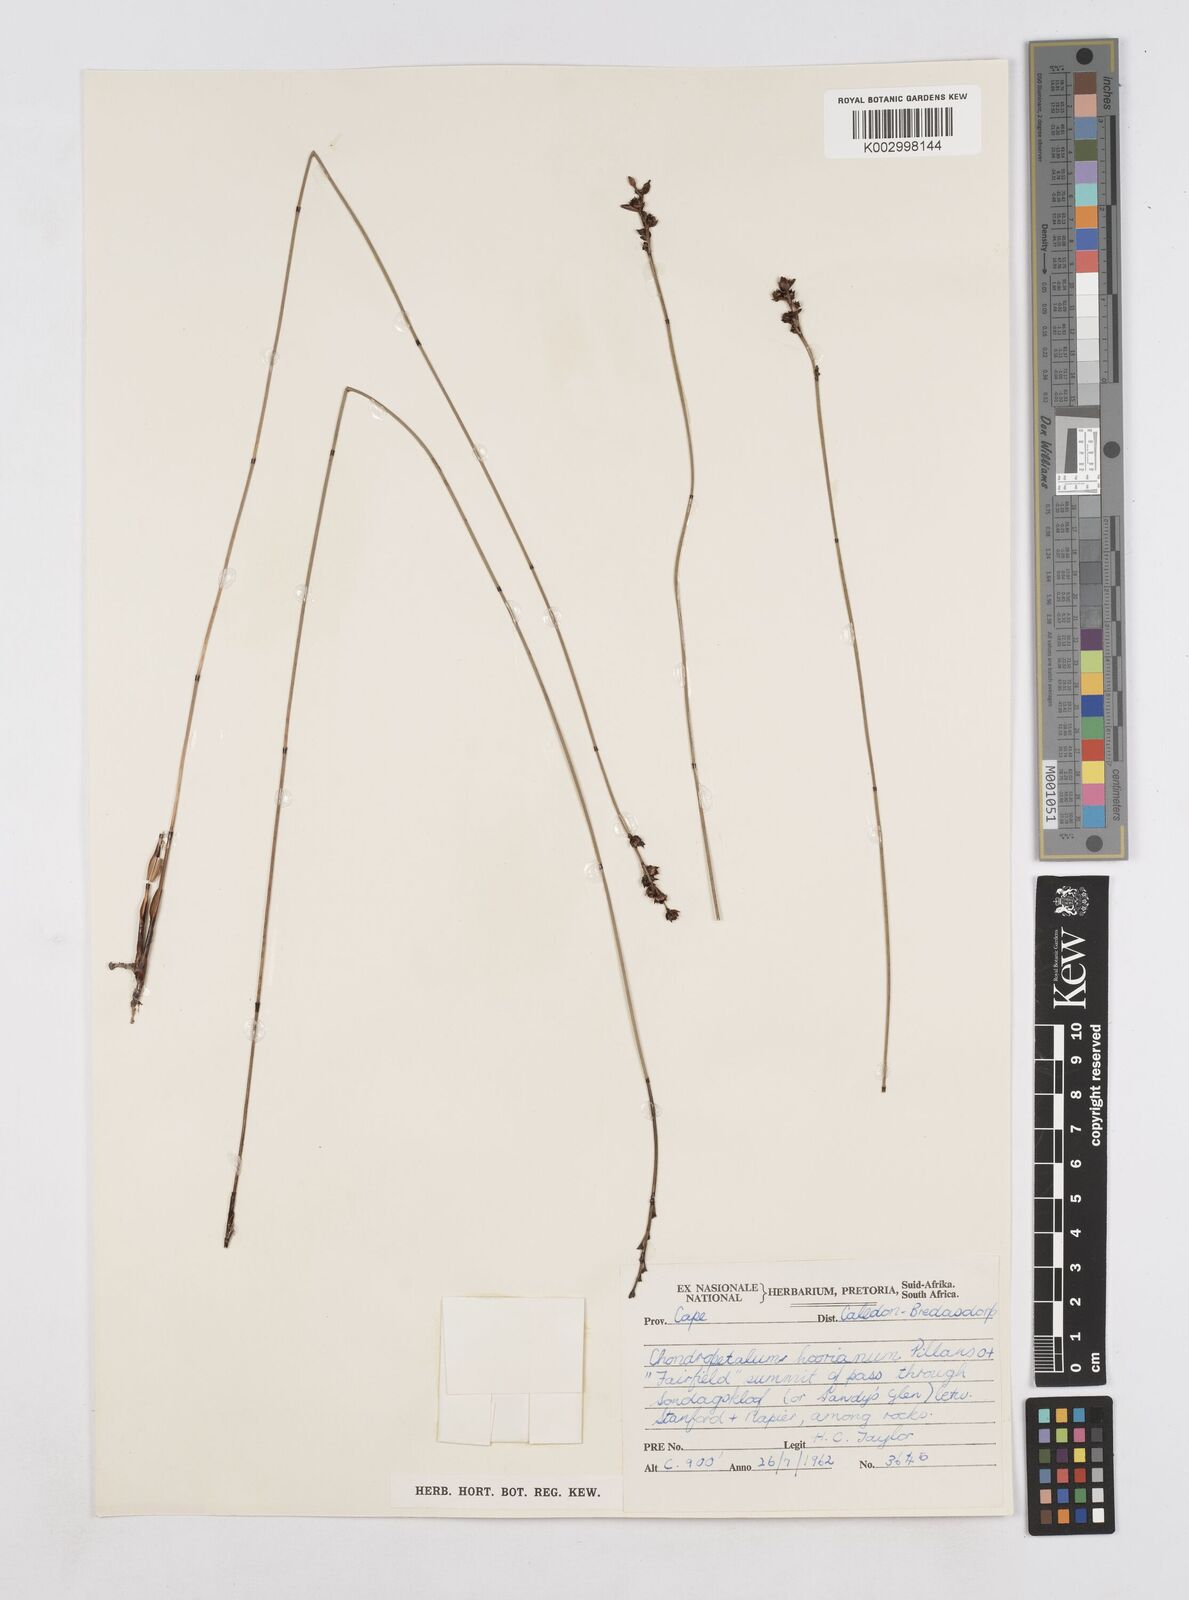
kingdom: Plantae
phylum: Tracheophyta
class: Liliopsida
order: Poales
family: Restionaceae
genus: Elegia
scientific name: Elegia hookeriana
